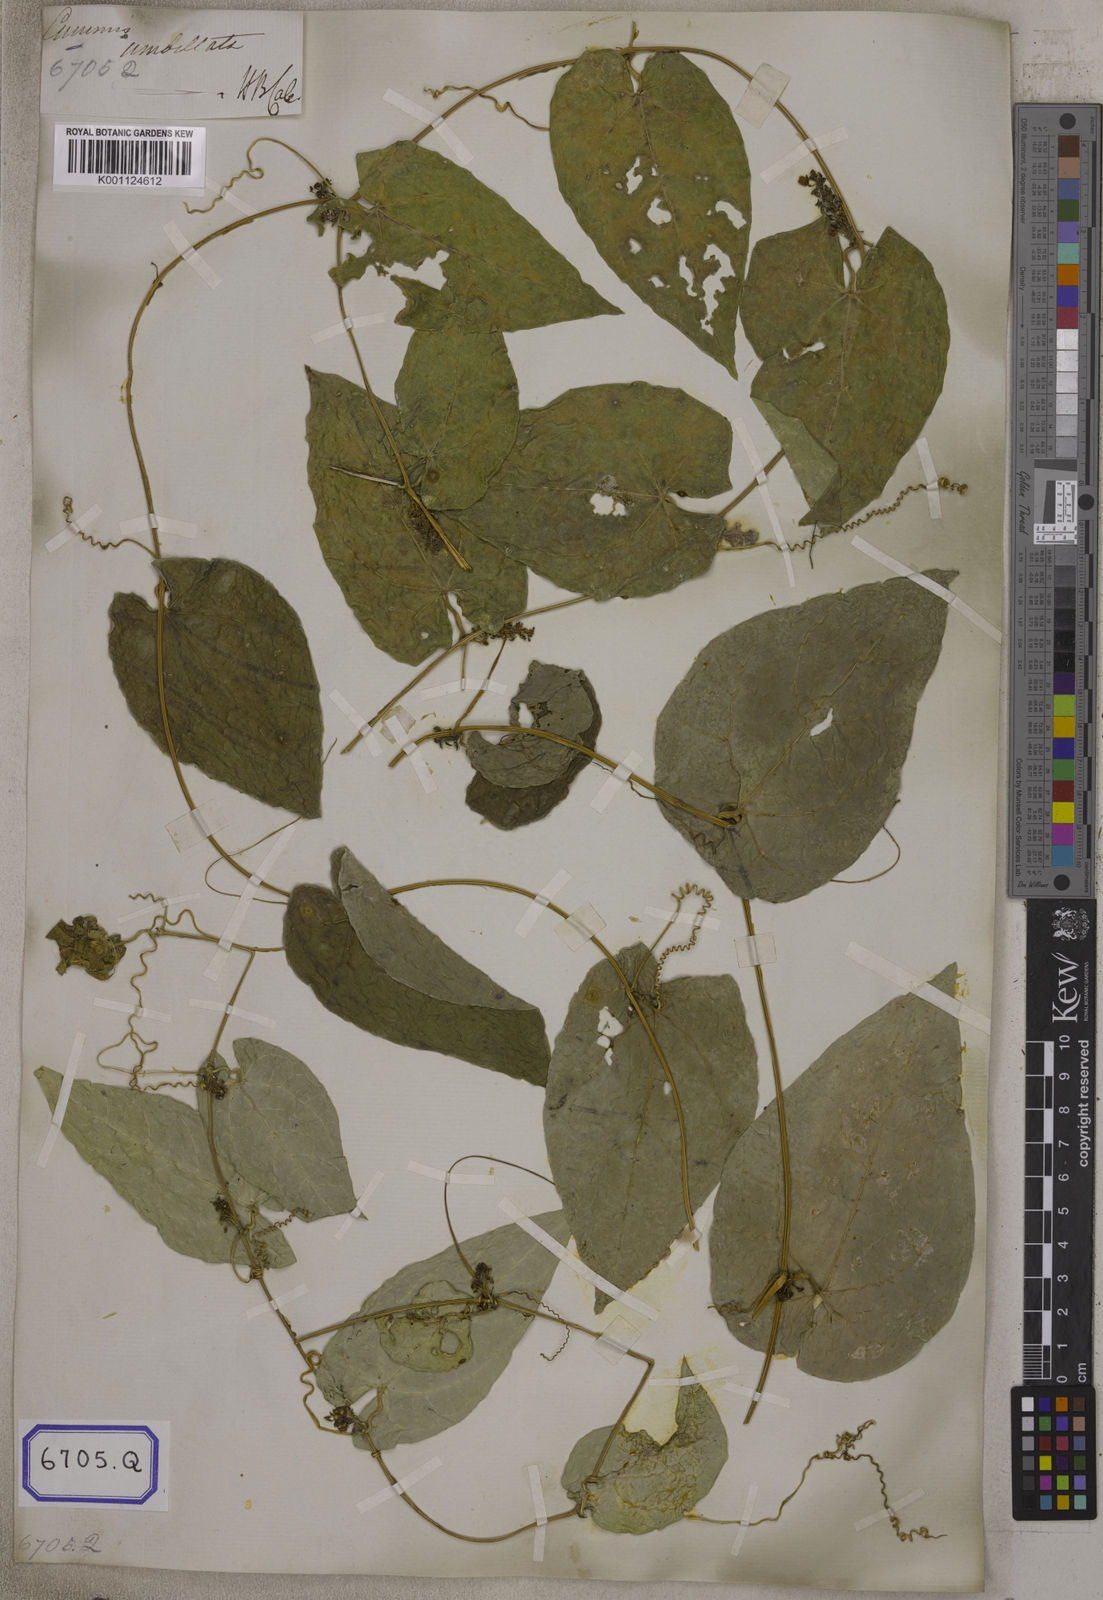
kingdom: Plantae
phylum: Tracheophyta
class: Magnoliopsida
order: Cucurbitales
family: Cucurbitaceae
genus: Bryonia
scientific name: Bryonia
